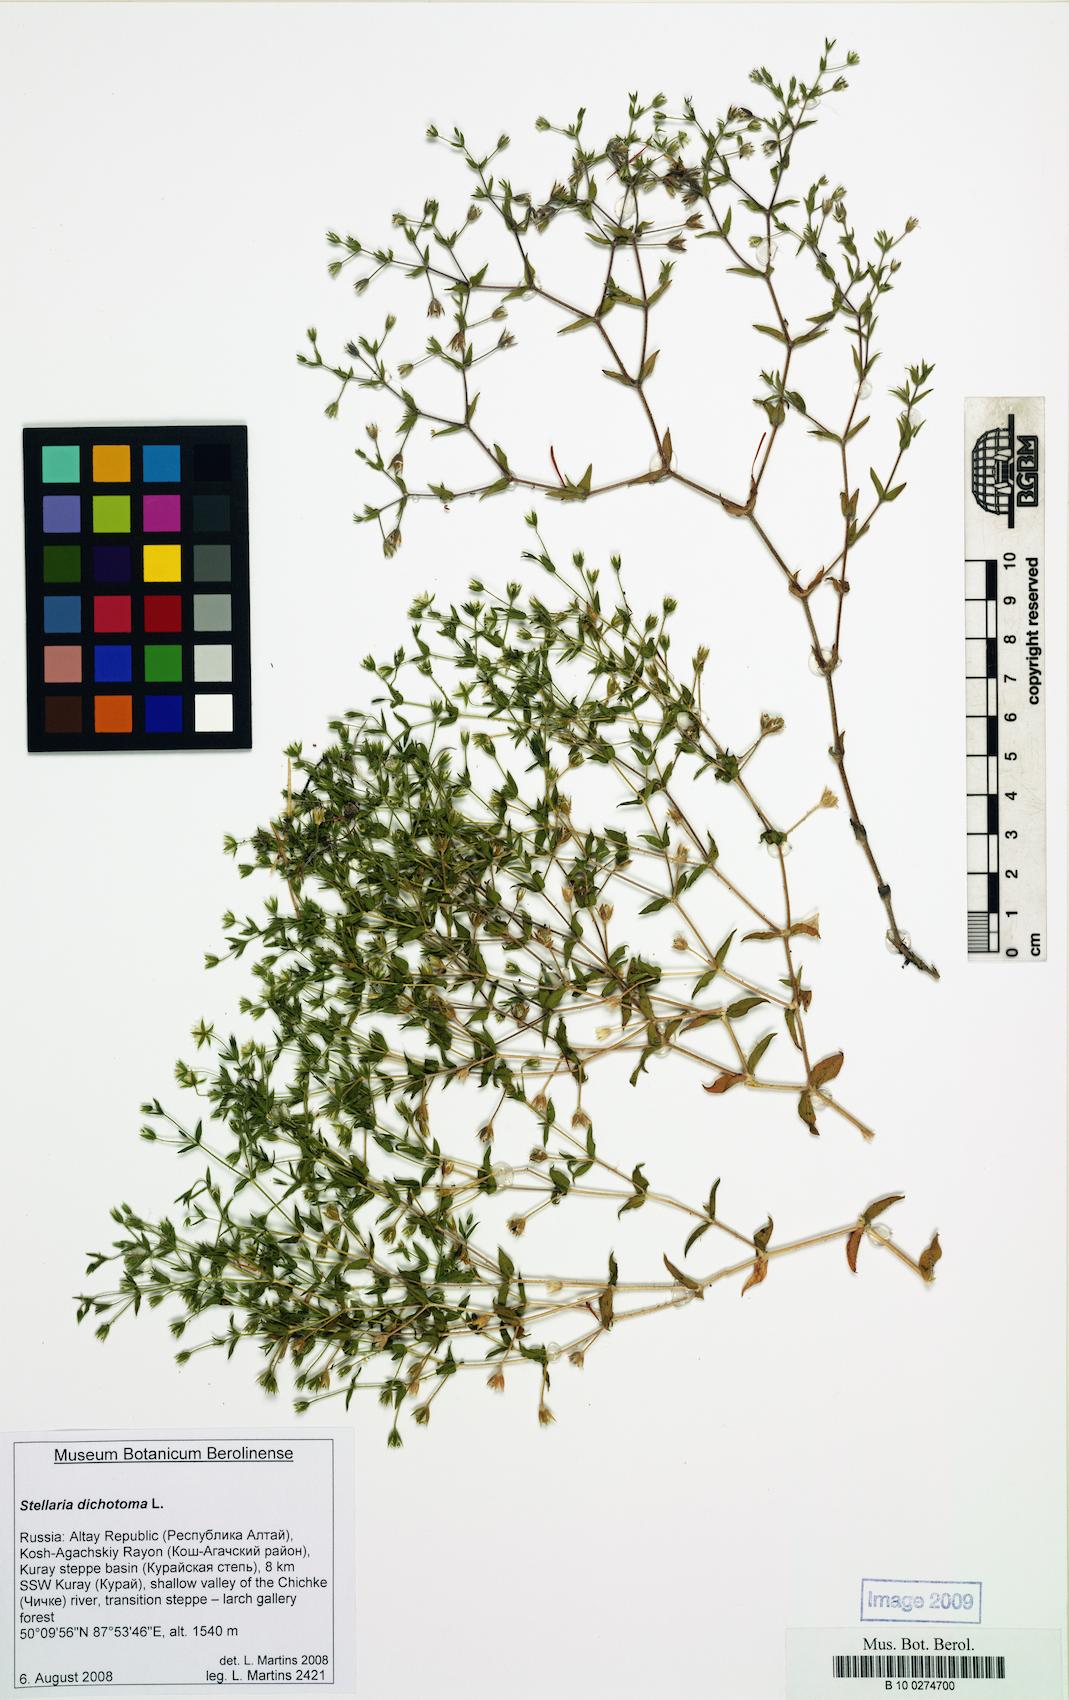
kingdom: Plantae
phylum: Tracheophyta
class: Magnoliopsida
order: Caryophyllales
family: Caryophyllaceae
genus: Mesostemma
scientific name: Mesostemma dichotomum
